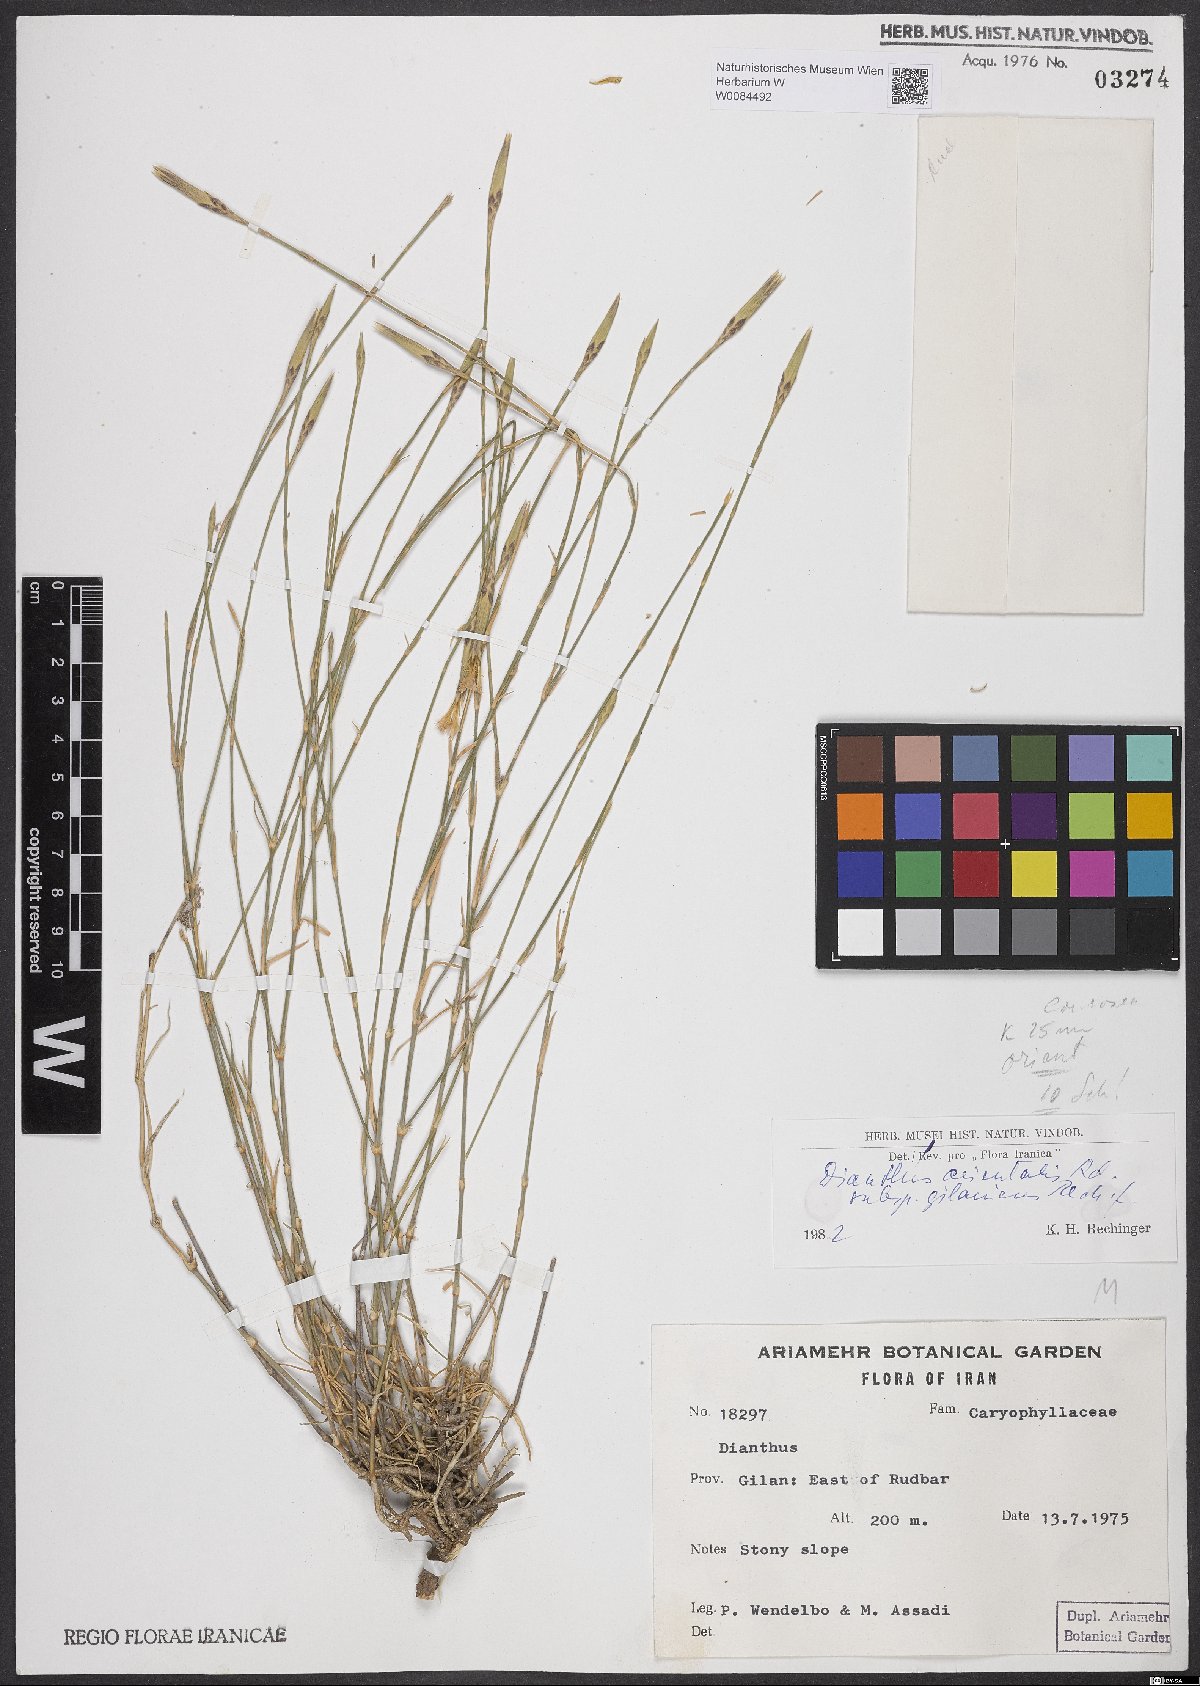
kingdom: Plantae
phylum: Tracheophyta
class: Magnoliopsida
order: Caryophyllales
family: Caryophyllaceae
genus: Dianthus
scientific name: Dianthus orientalis
